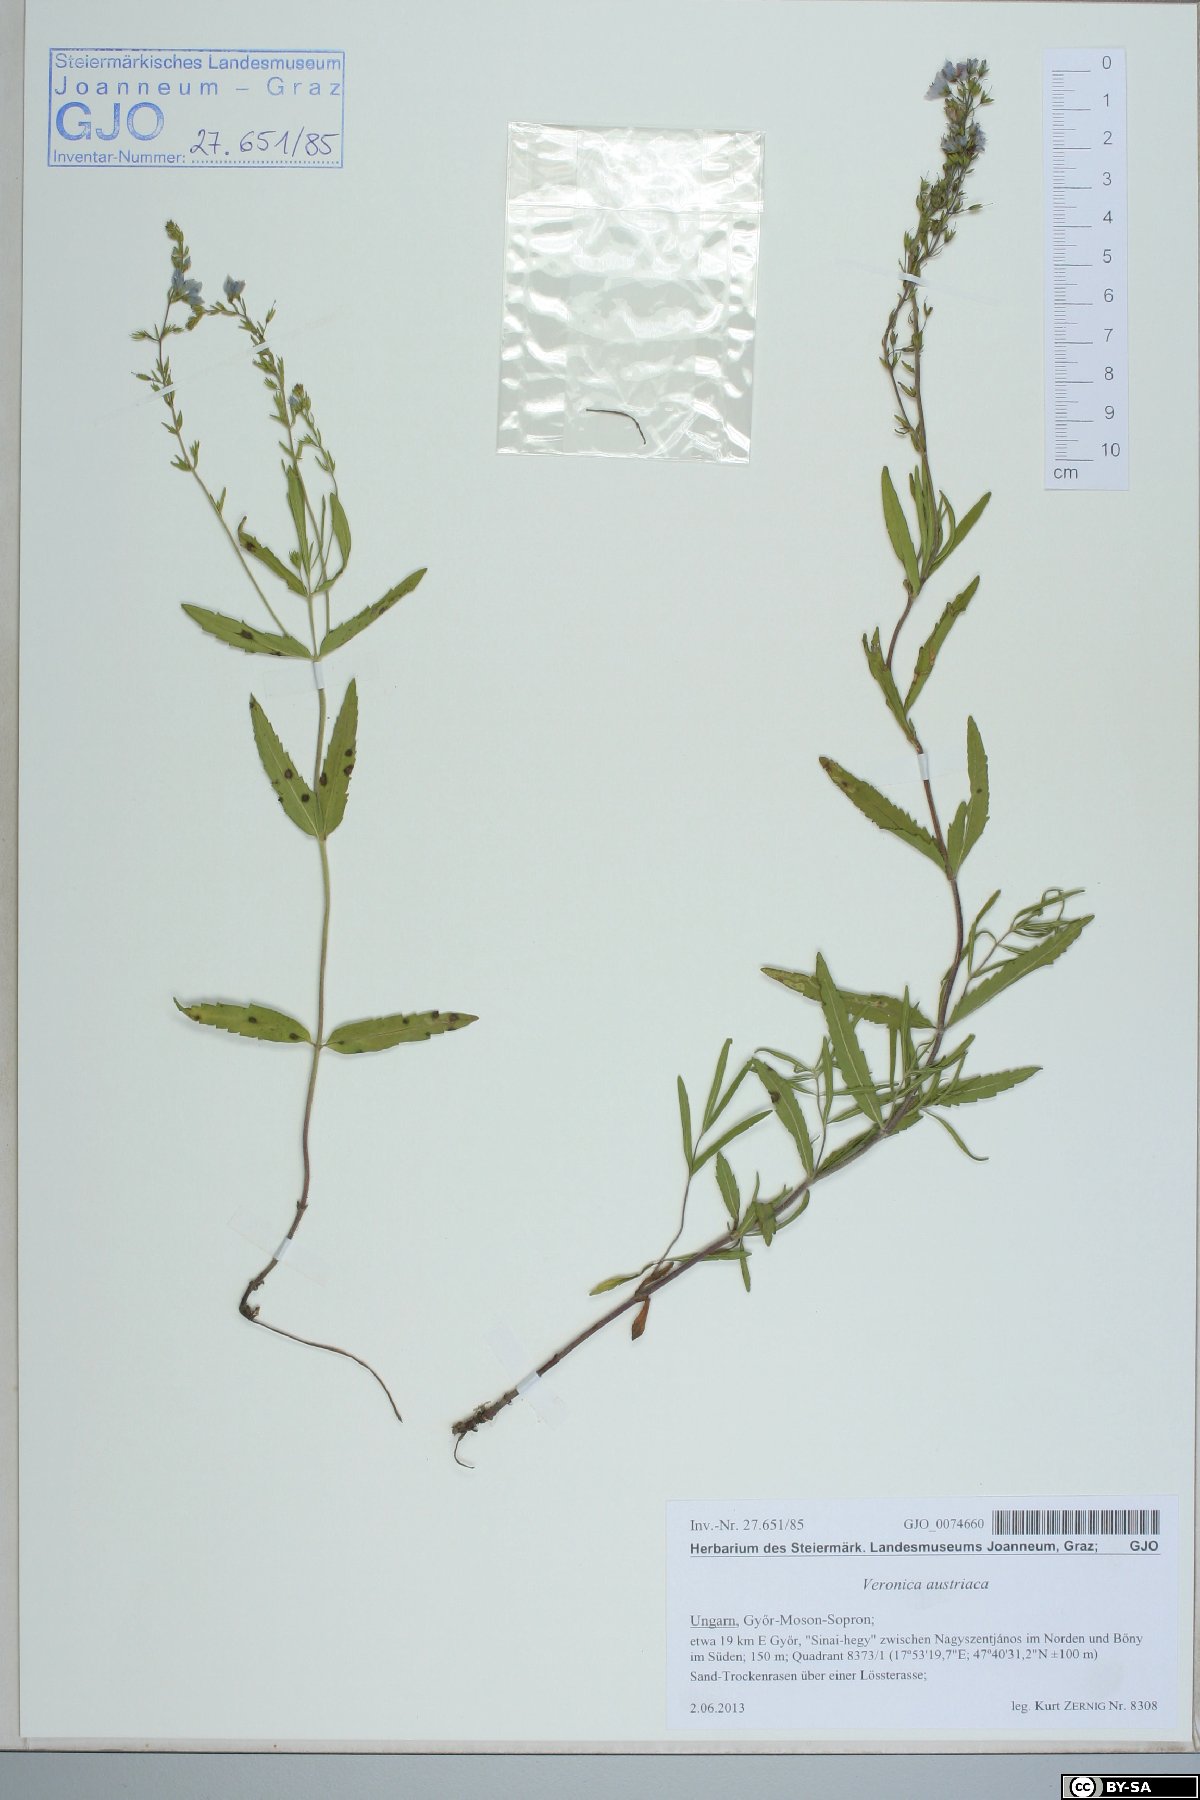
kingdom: Plantae
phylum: Tracheophyta
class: Magnoliopsida
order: Lamiales
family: Plantaginaceae
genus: Veronica
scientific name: Veronica austriaca
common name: Large speedwell
